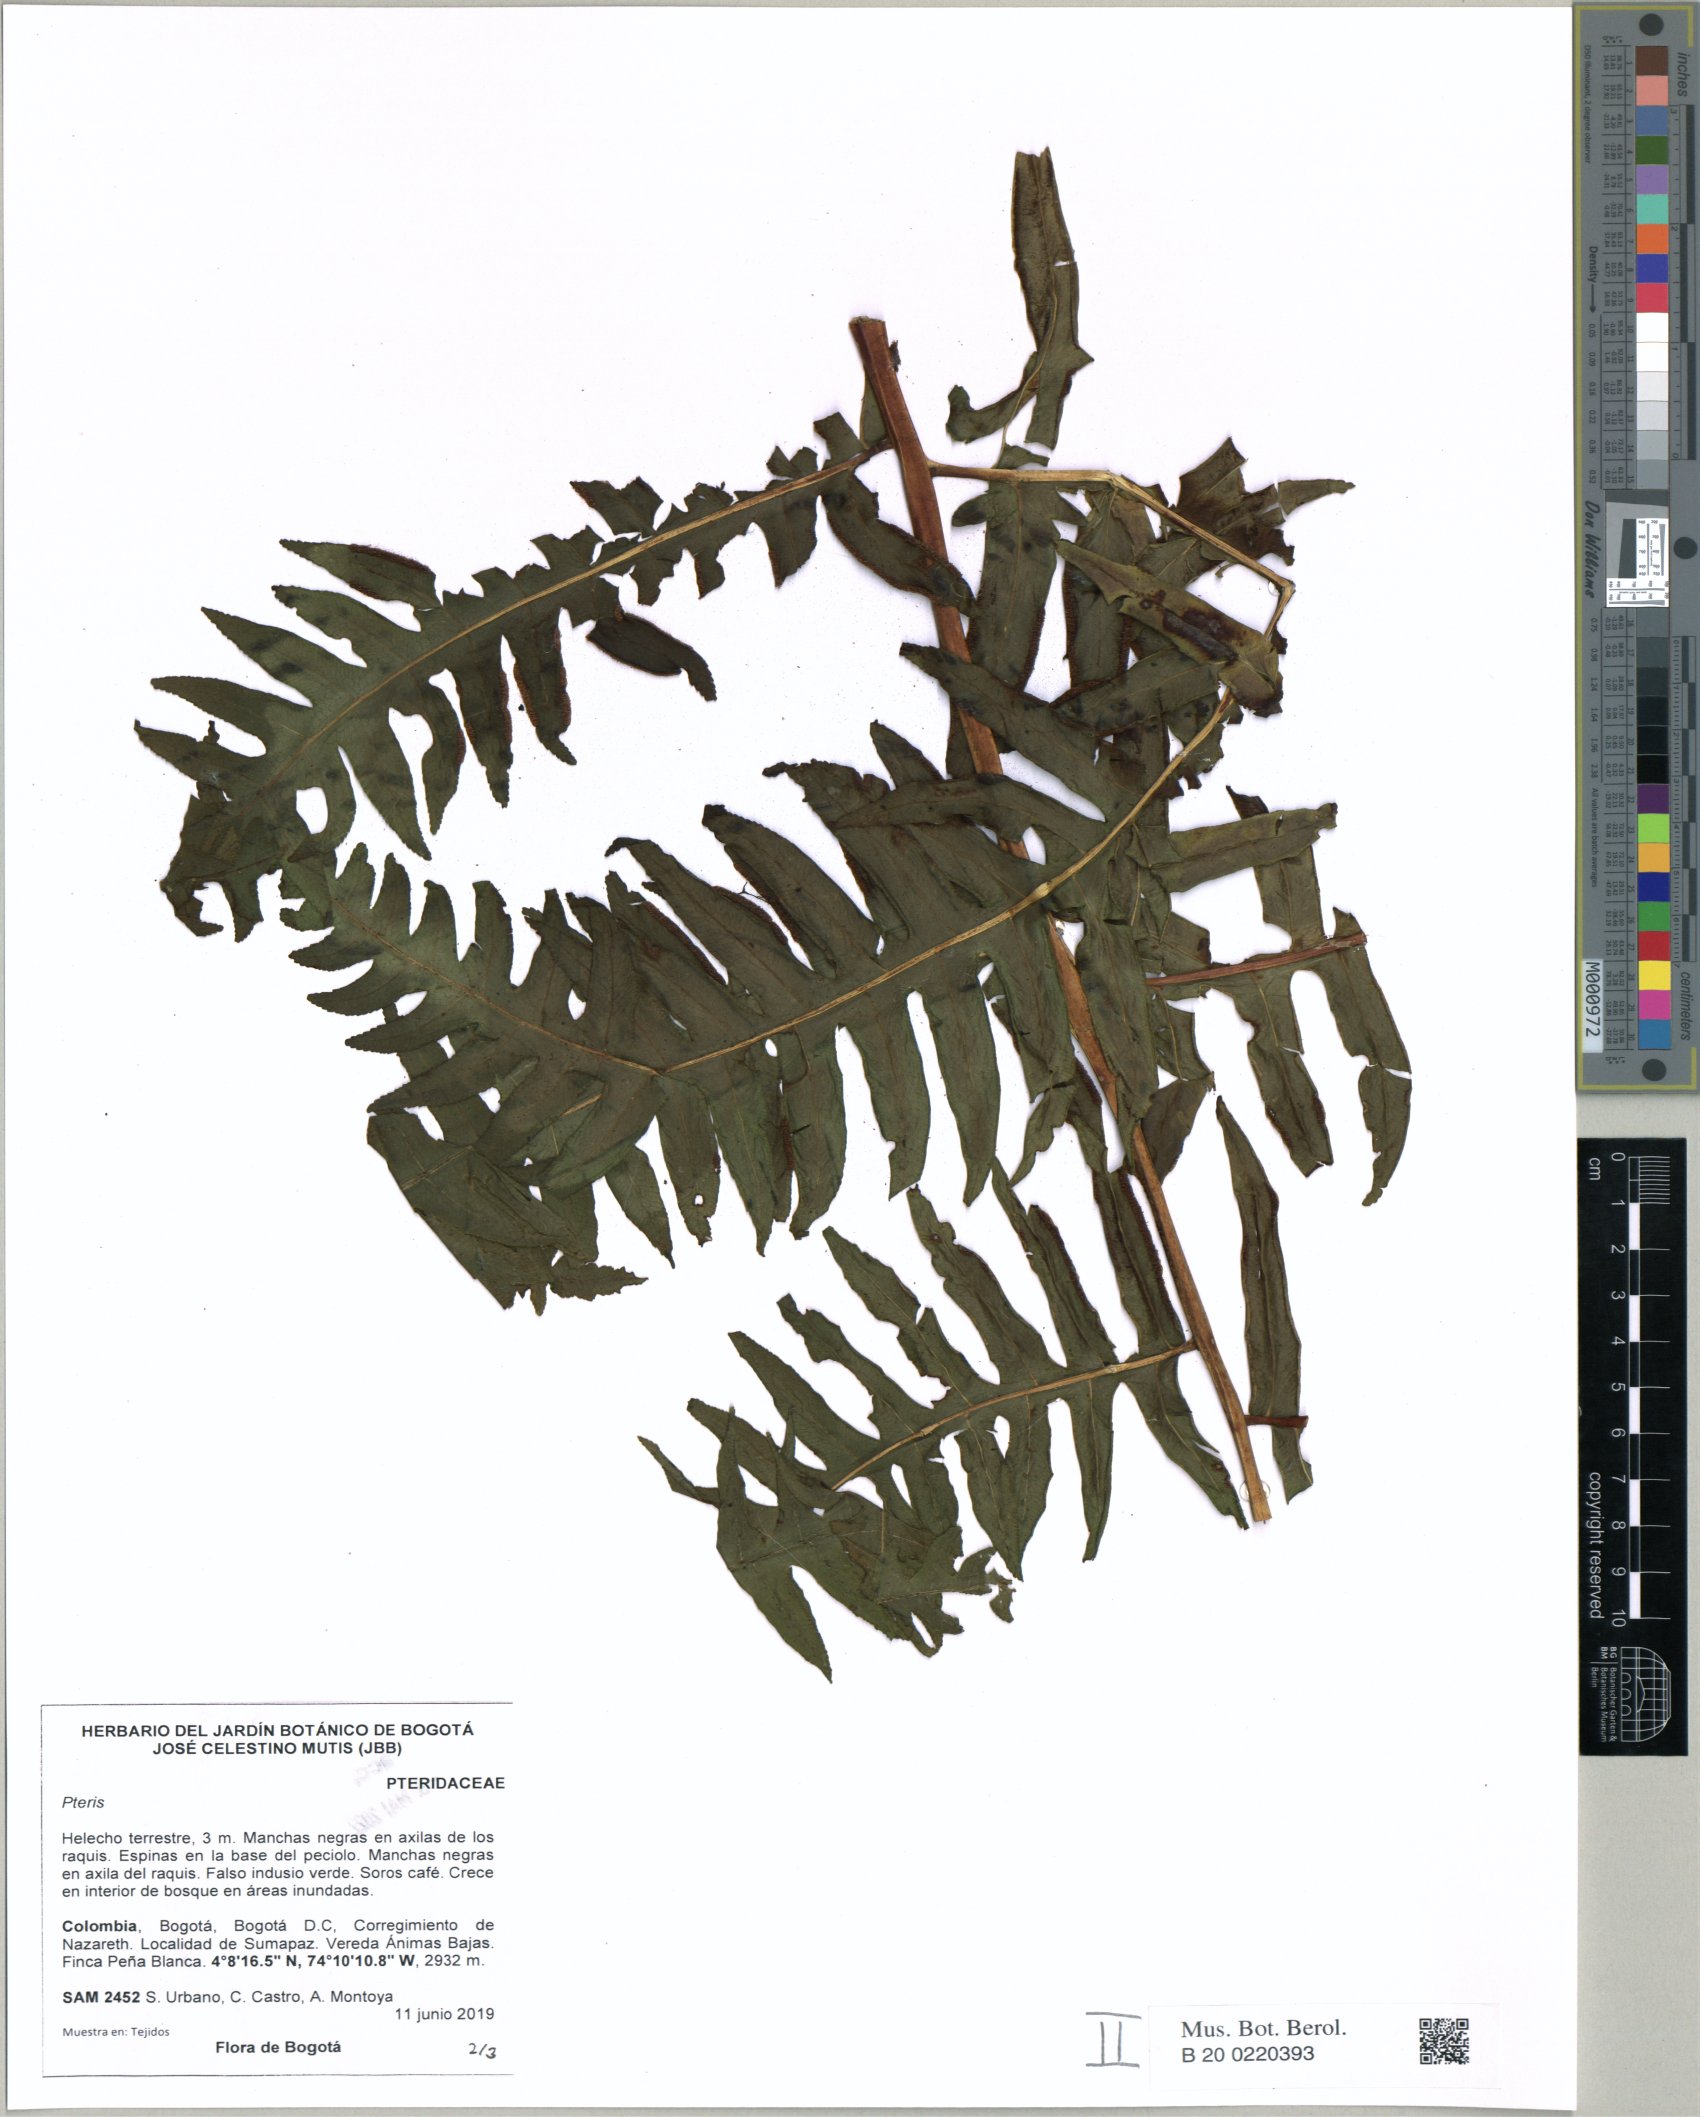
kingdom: Plantae
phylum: Tracheophyta
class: Polypodiopsida
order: Polypodiales
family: Pteridaceae
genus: Pteris
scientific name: Pteris
